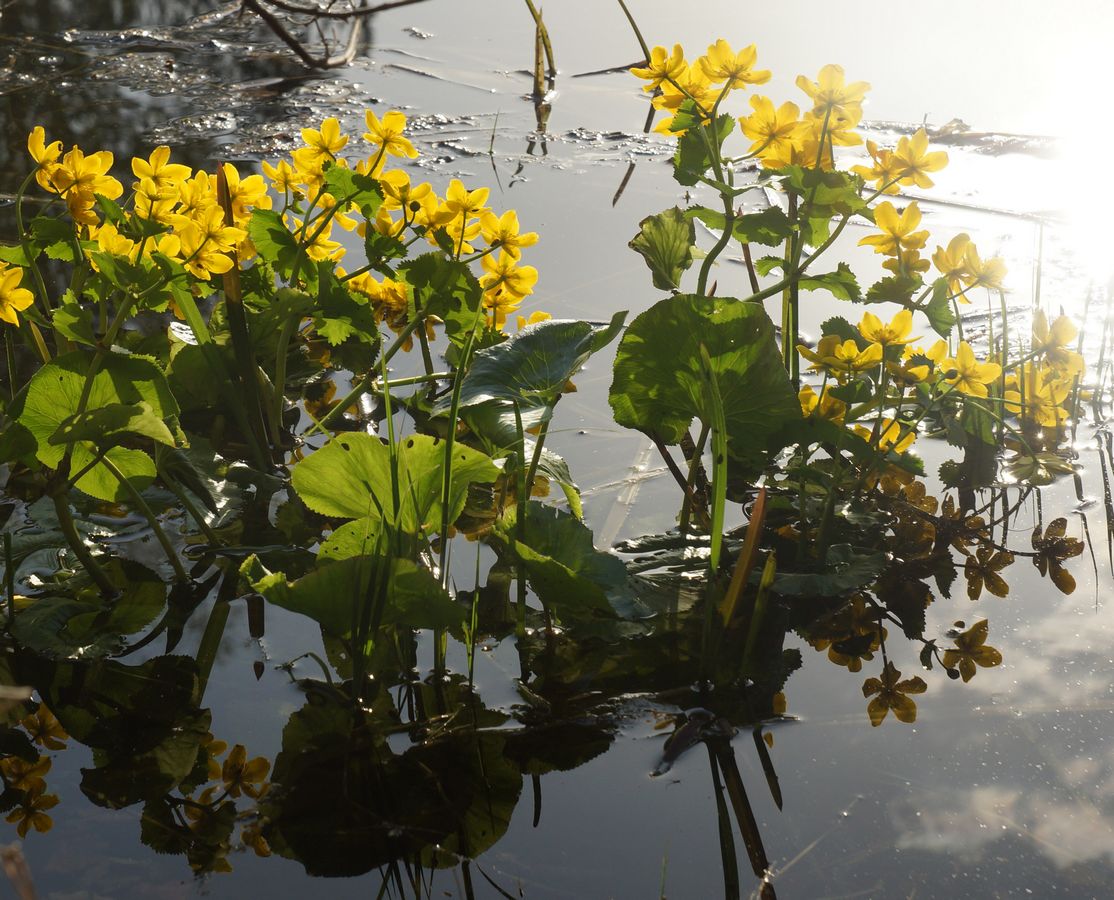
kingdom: Plantae
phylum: Tracheophyta
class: Magnoliopsida
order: Ranunculales
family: Ranunculaceae
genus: Caltha
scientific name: Caltha palustris
